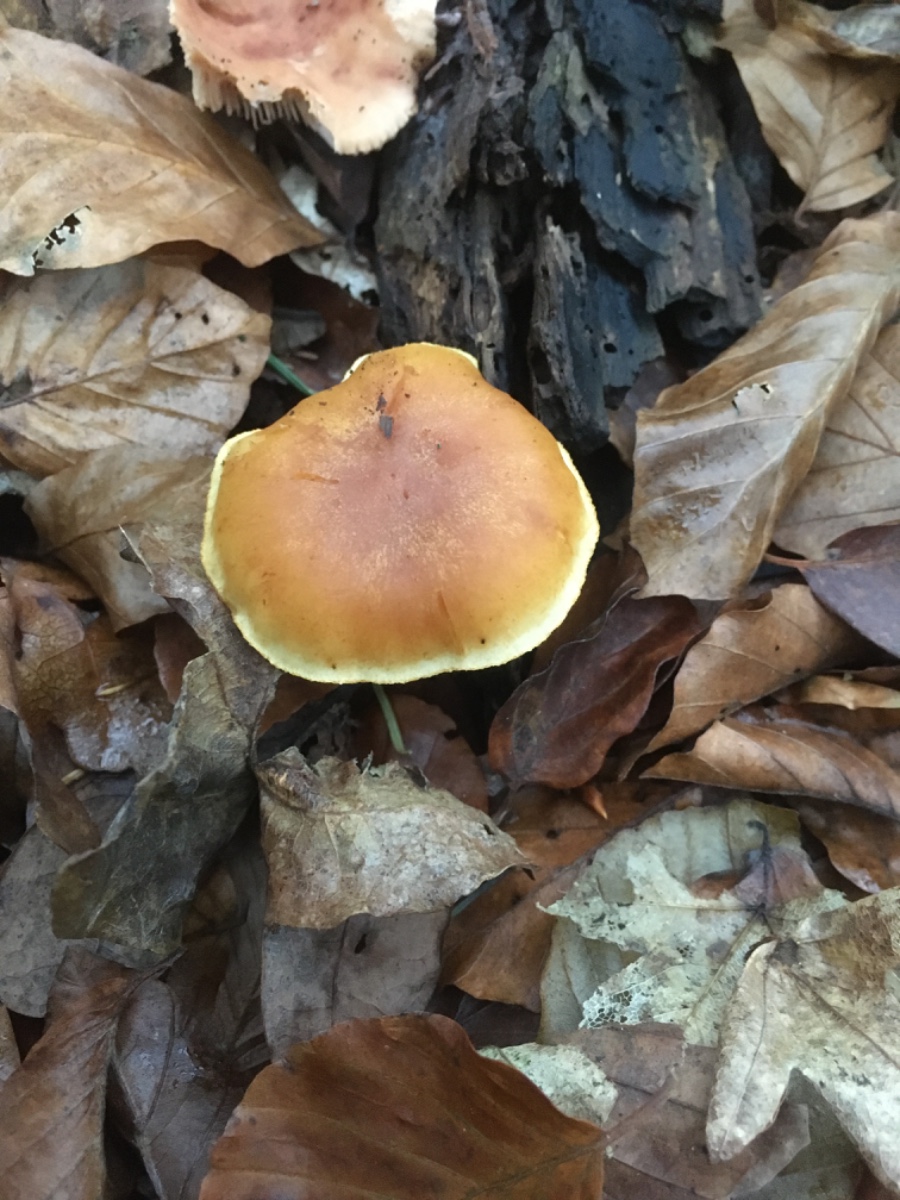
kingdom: Fungi
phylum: Basidiomycota
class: Agaricomycetes
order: Agaricales
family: Hymenogastraceae
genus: Gymnopilus
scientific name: Gymnopilus penetrans
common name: plettet flammehat
